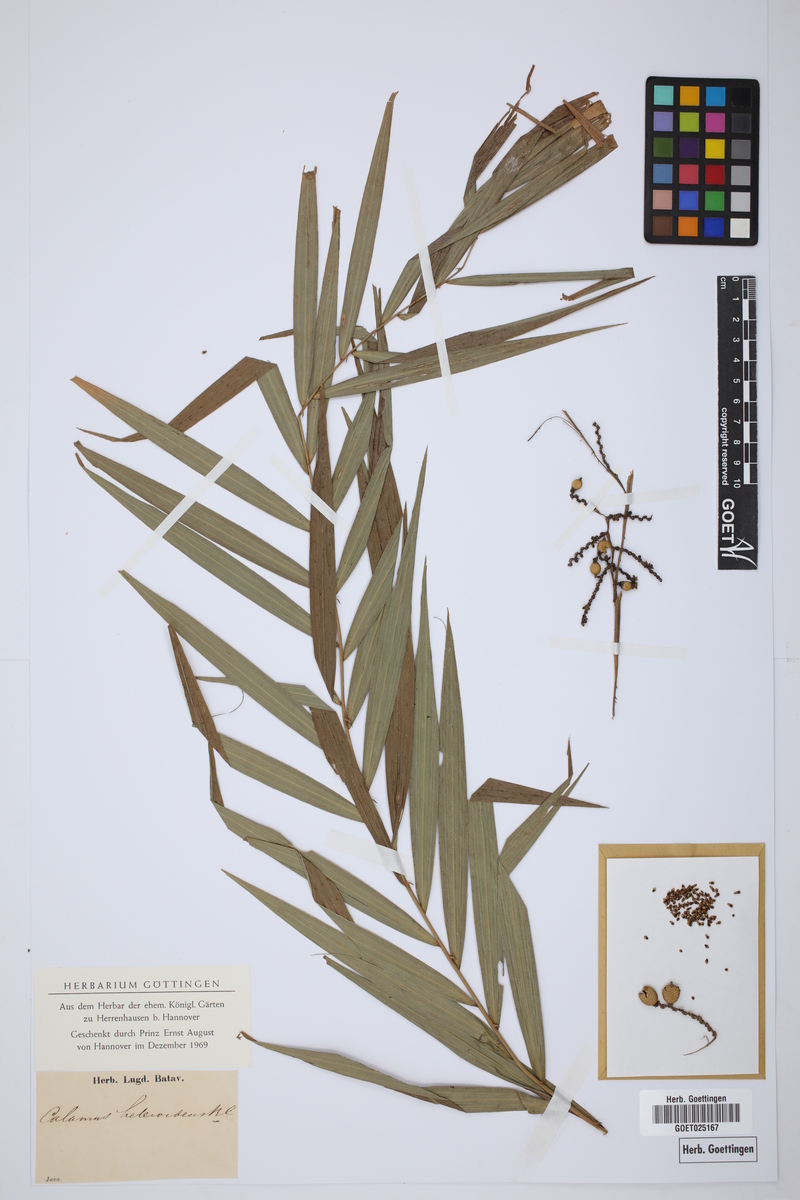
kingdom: Plantae
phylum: Tracheophyta
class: Liliopsida
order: Arecales
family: Arecaceae
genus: Calamus
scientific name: Calamus heteroideus
